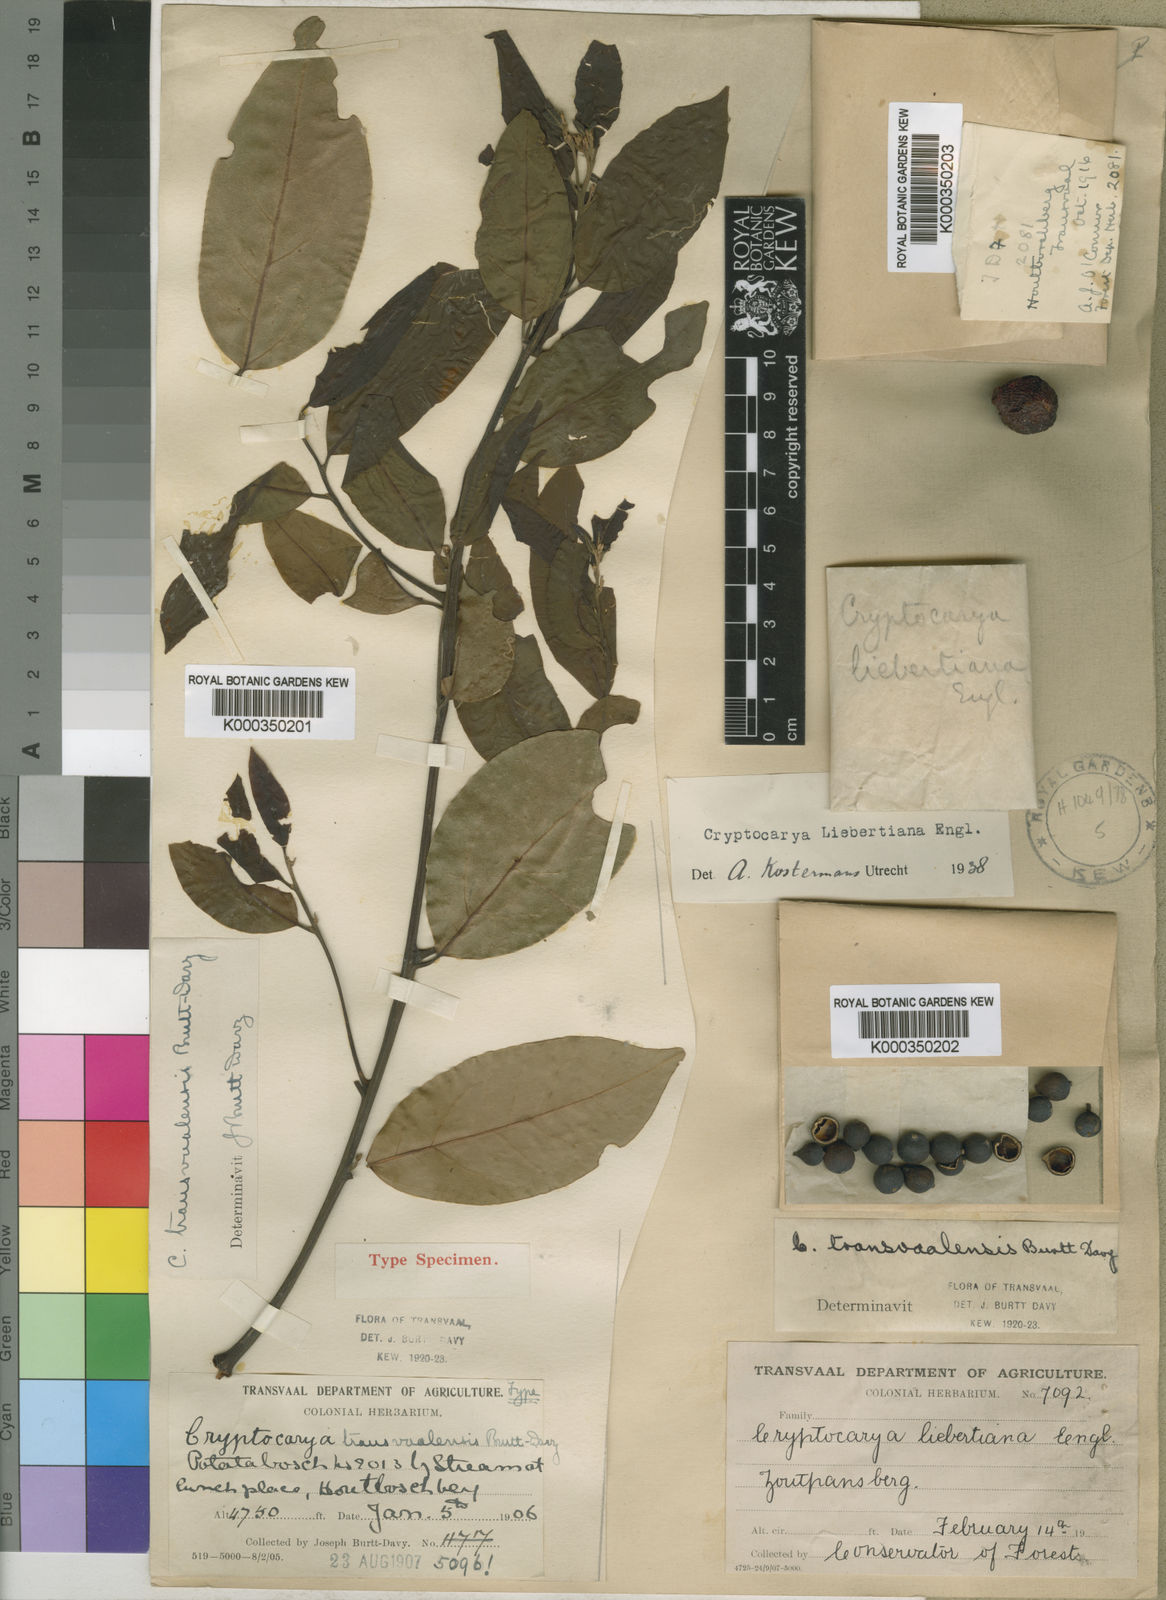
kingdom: Plantae
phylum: Tracheophyta
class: Magnoliopsida
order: Laurales
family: Lauraceae
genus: Cryptocarya
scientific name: Cryptocarya transvaalensis
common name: Mountain wild-quince
